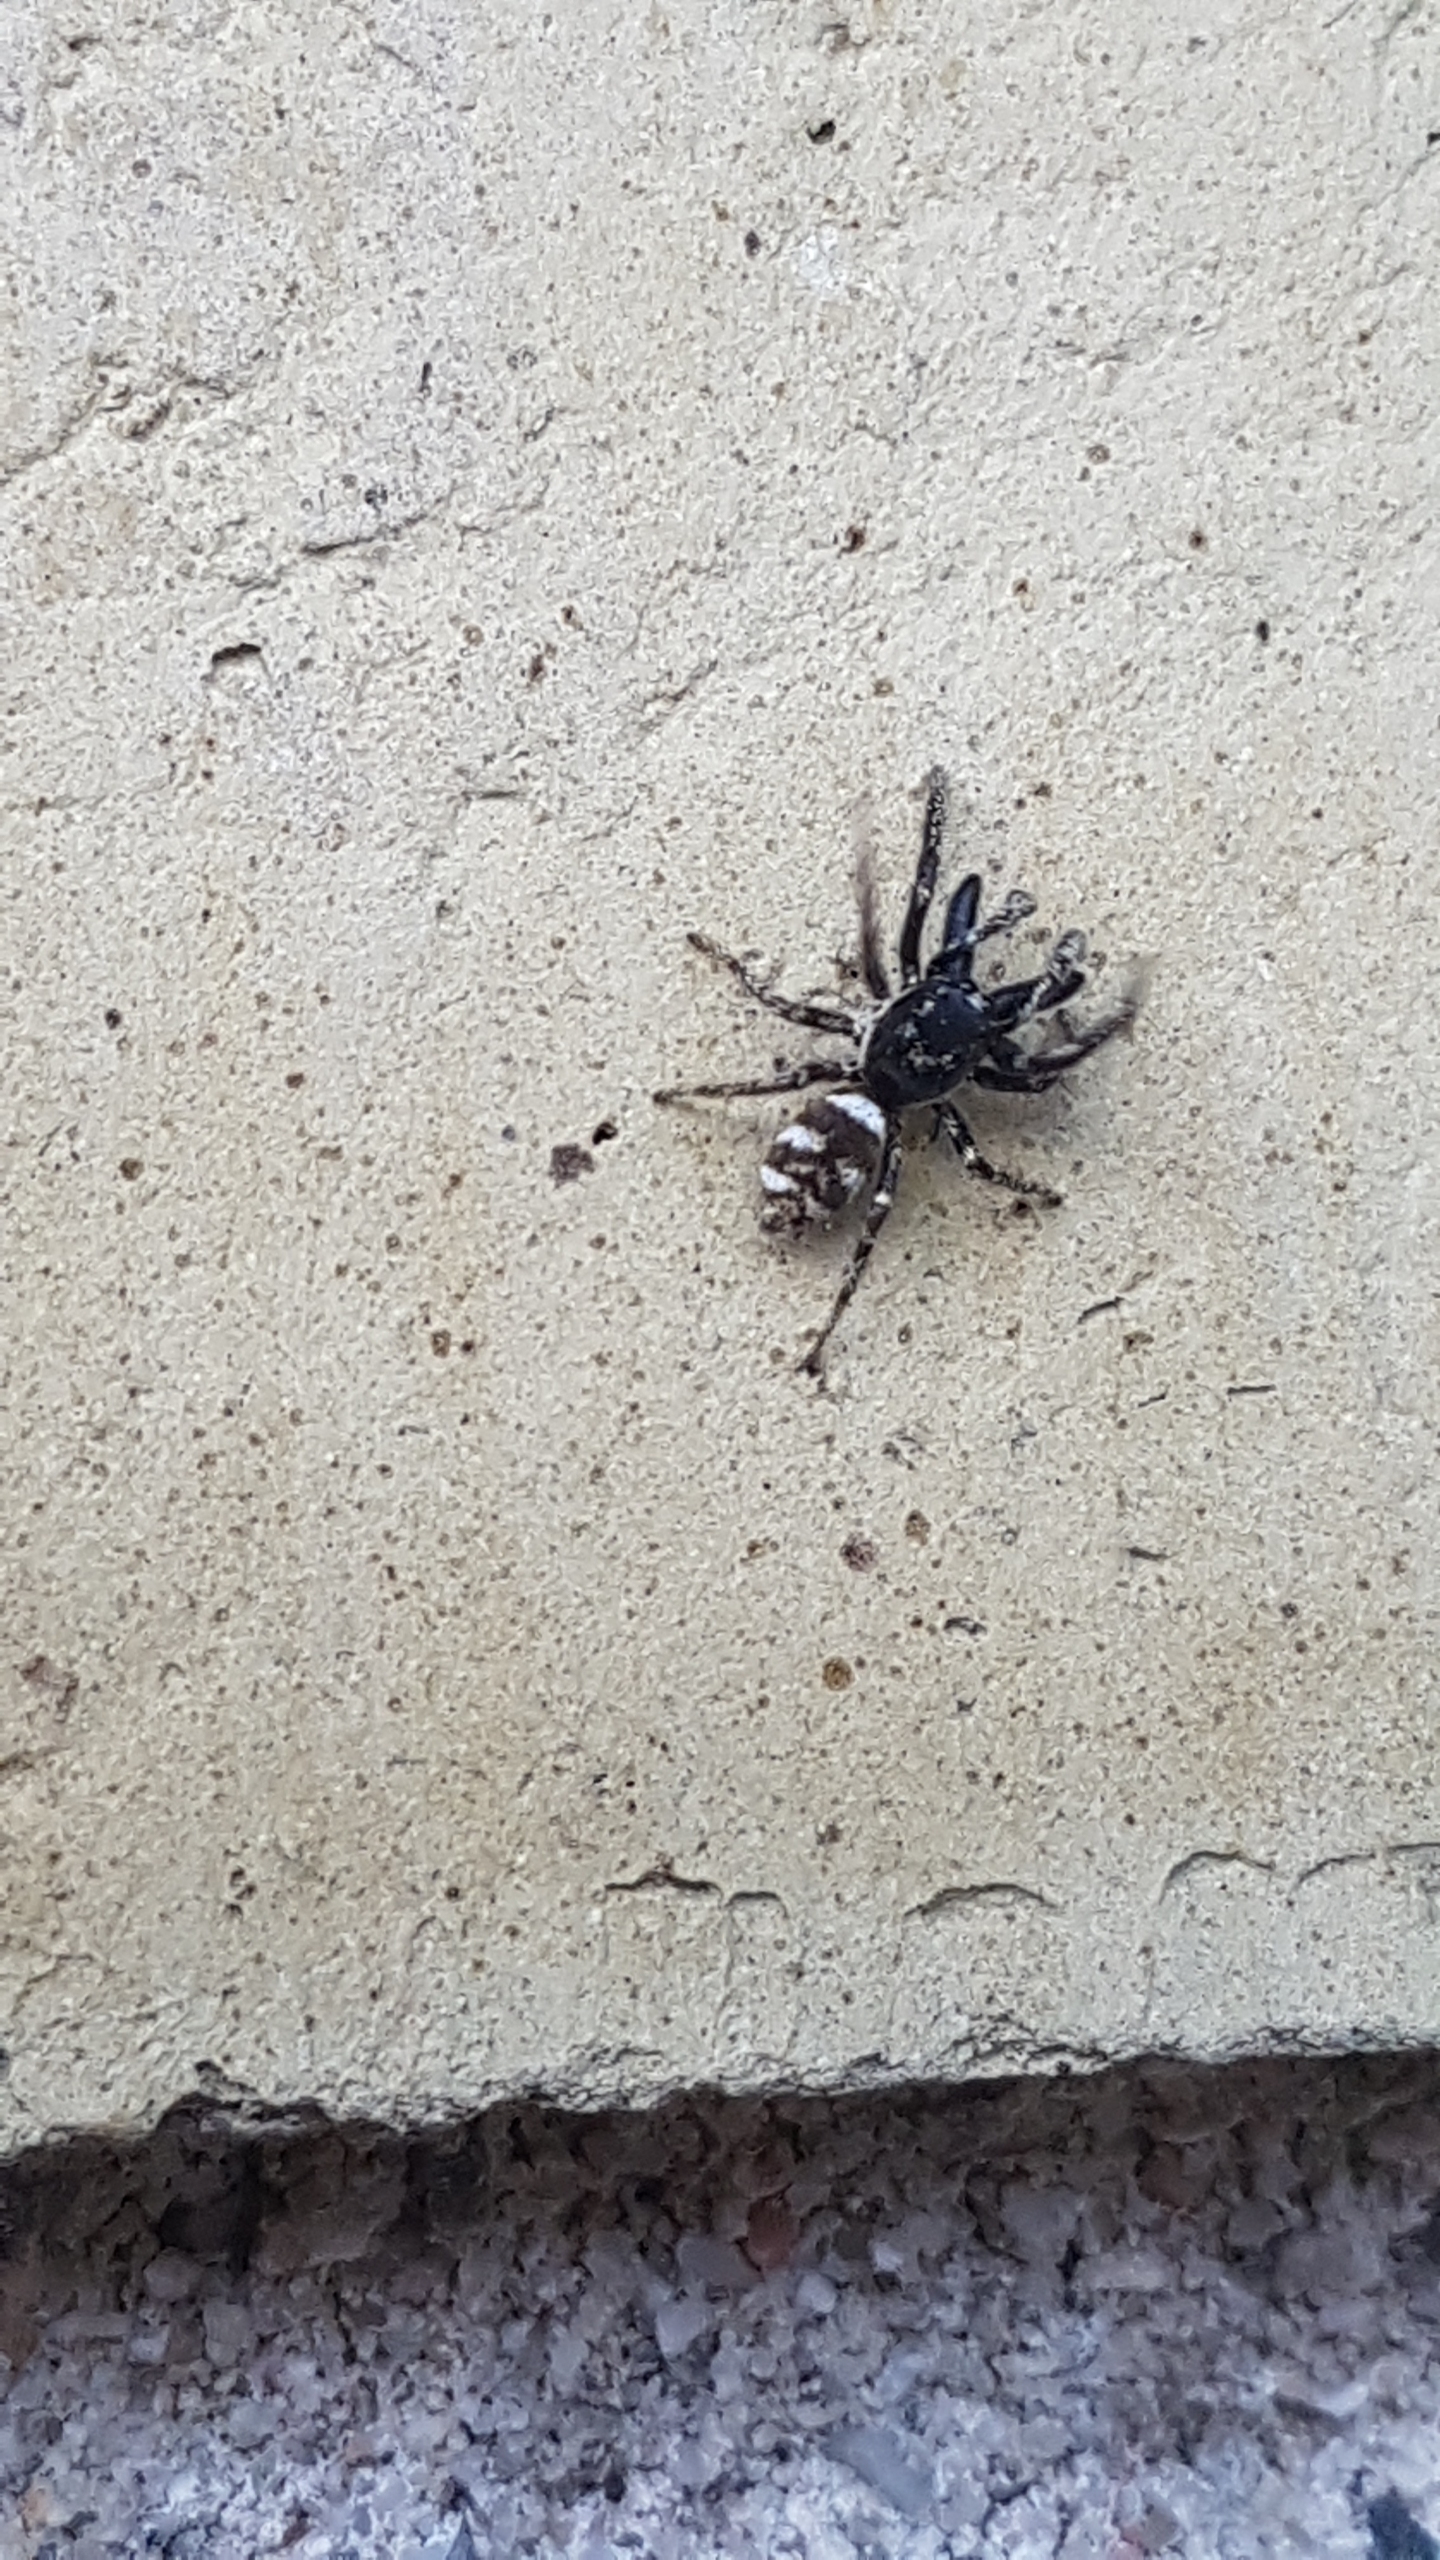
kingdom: Animalia
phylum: Arthropoda
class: Arachnida
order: Araneae
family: Salticidae
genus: Salticus
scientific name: Salticus scenicus
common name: Almindelig zebraedderkop
